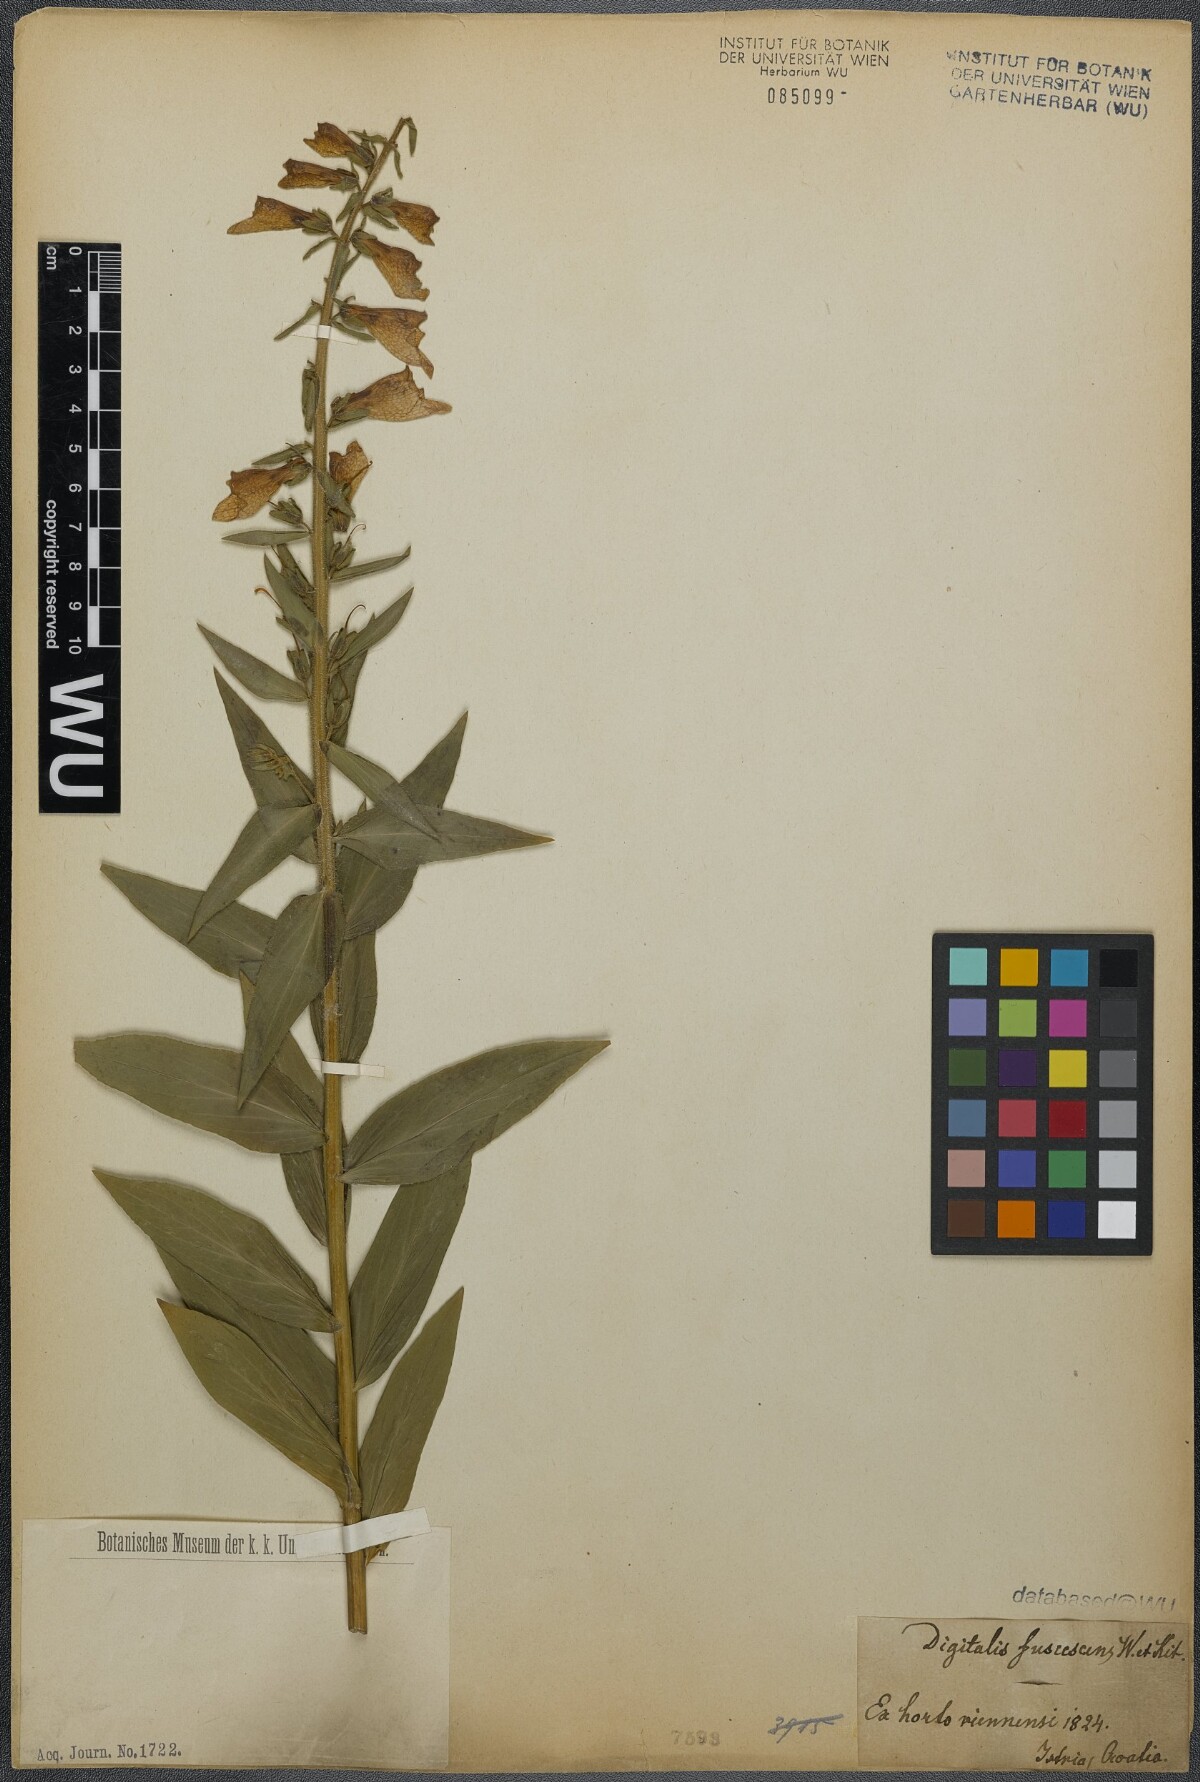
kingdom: Plantae
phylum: Tracheophyta
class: Magnoliopsida
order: Lamiales
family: Plantaginaceae
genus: Digitalis
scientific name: Digitalis fulva
